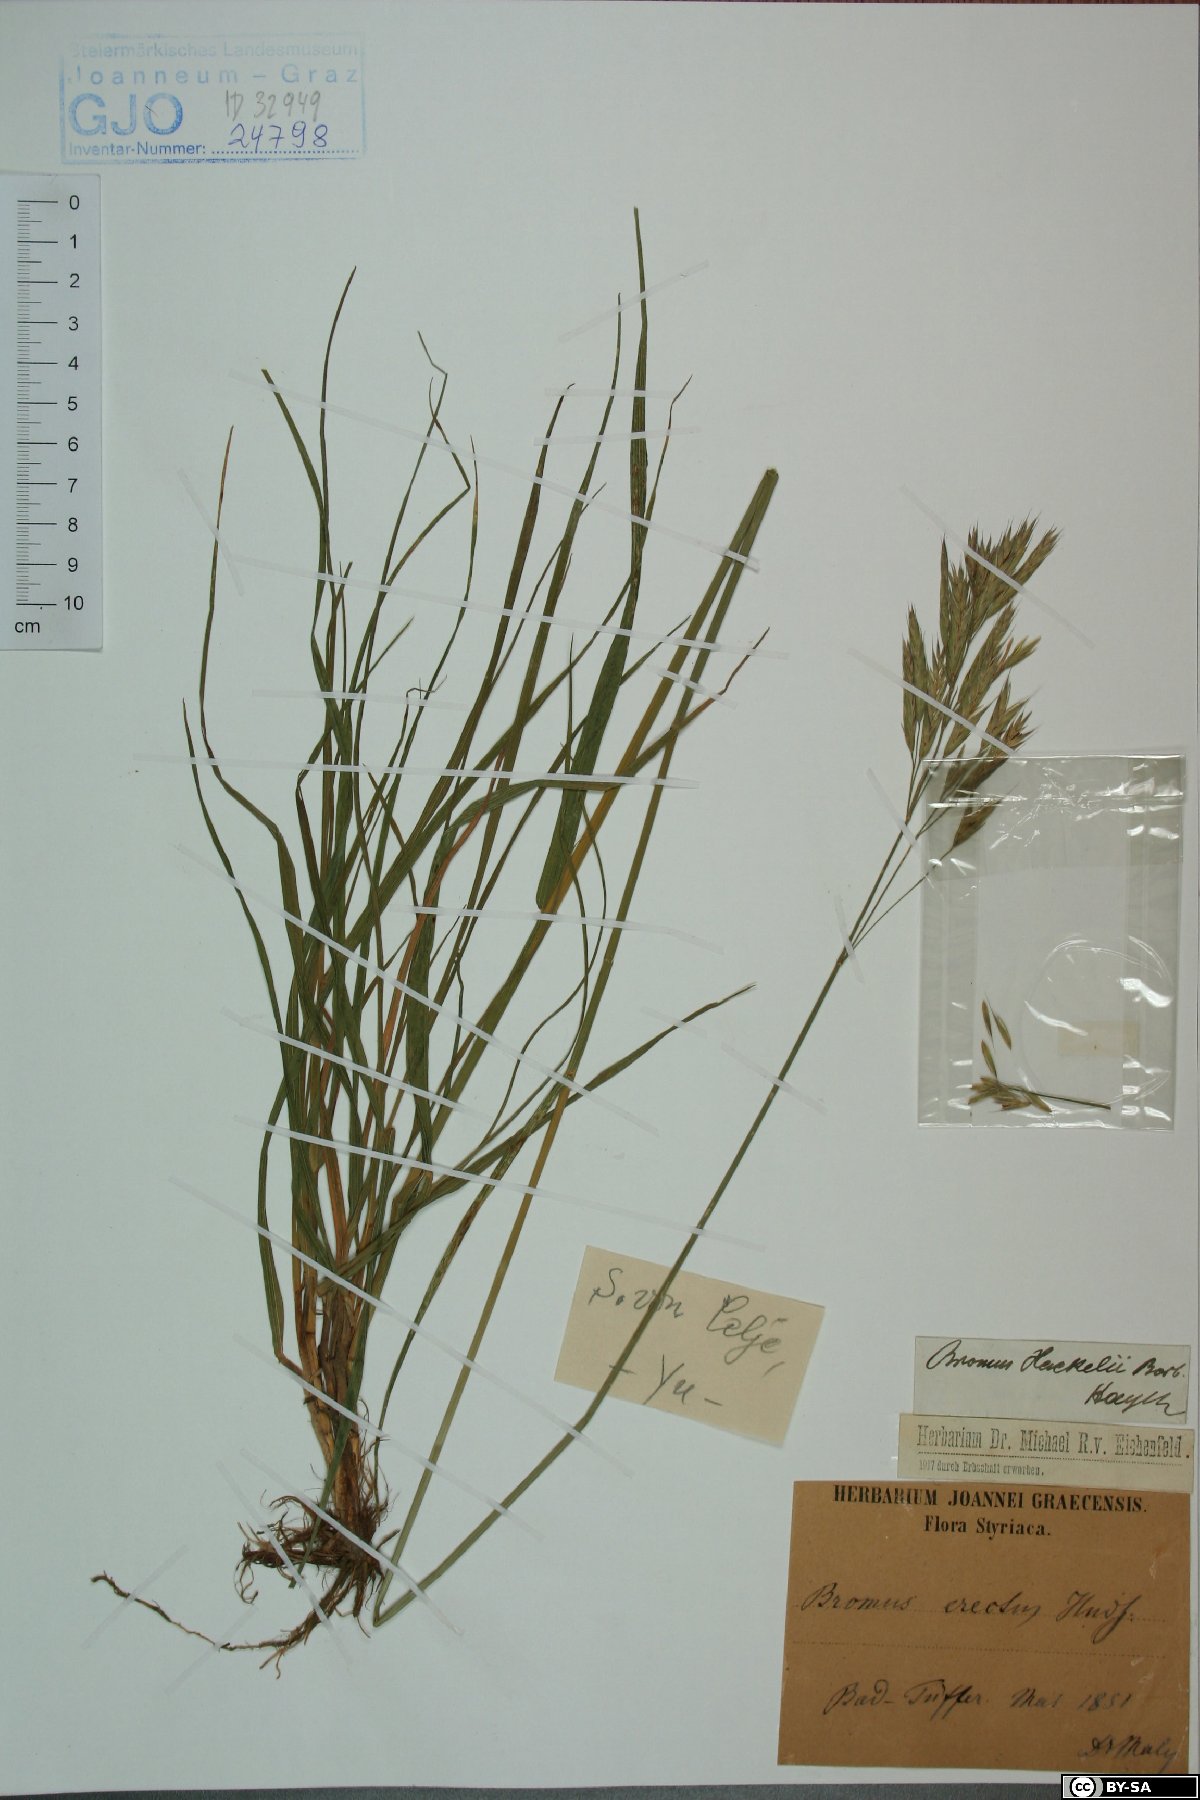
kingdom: Plantae
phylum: Tracheophyta
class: Liliopsida
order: Poales
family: Poaceae
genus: Bromus
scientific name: Bromus erectus
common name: Erect brome
